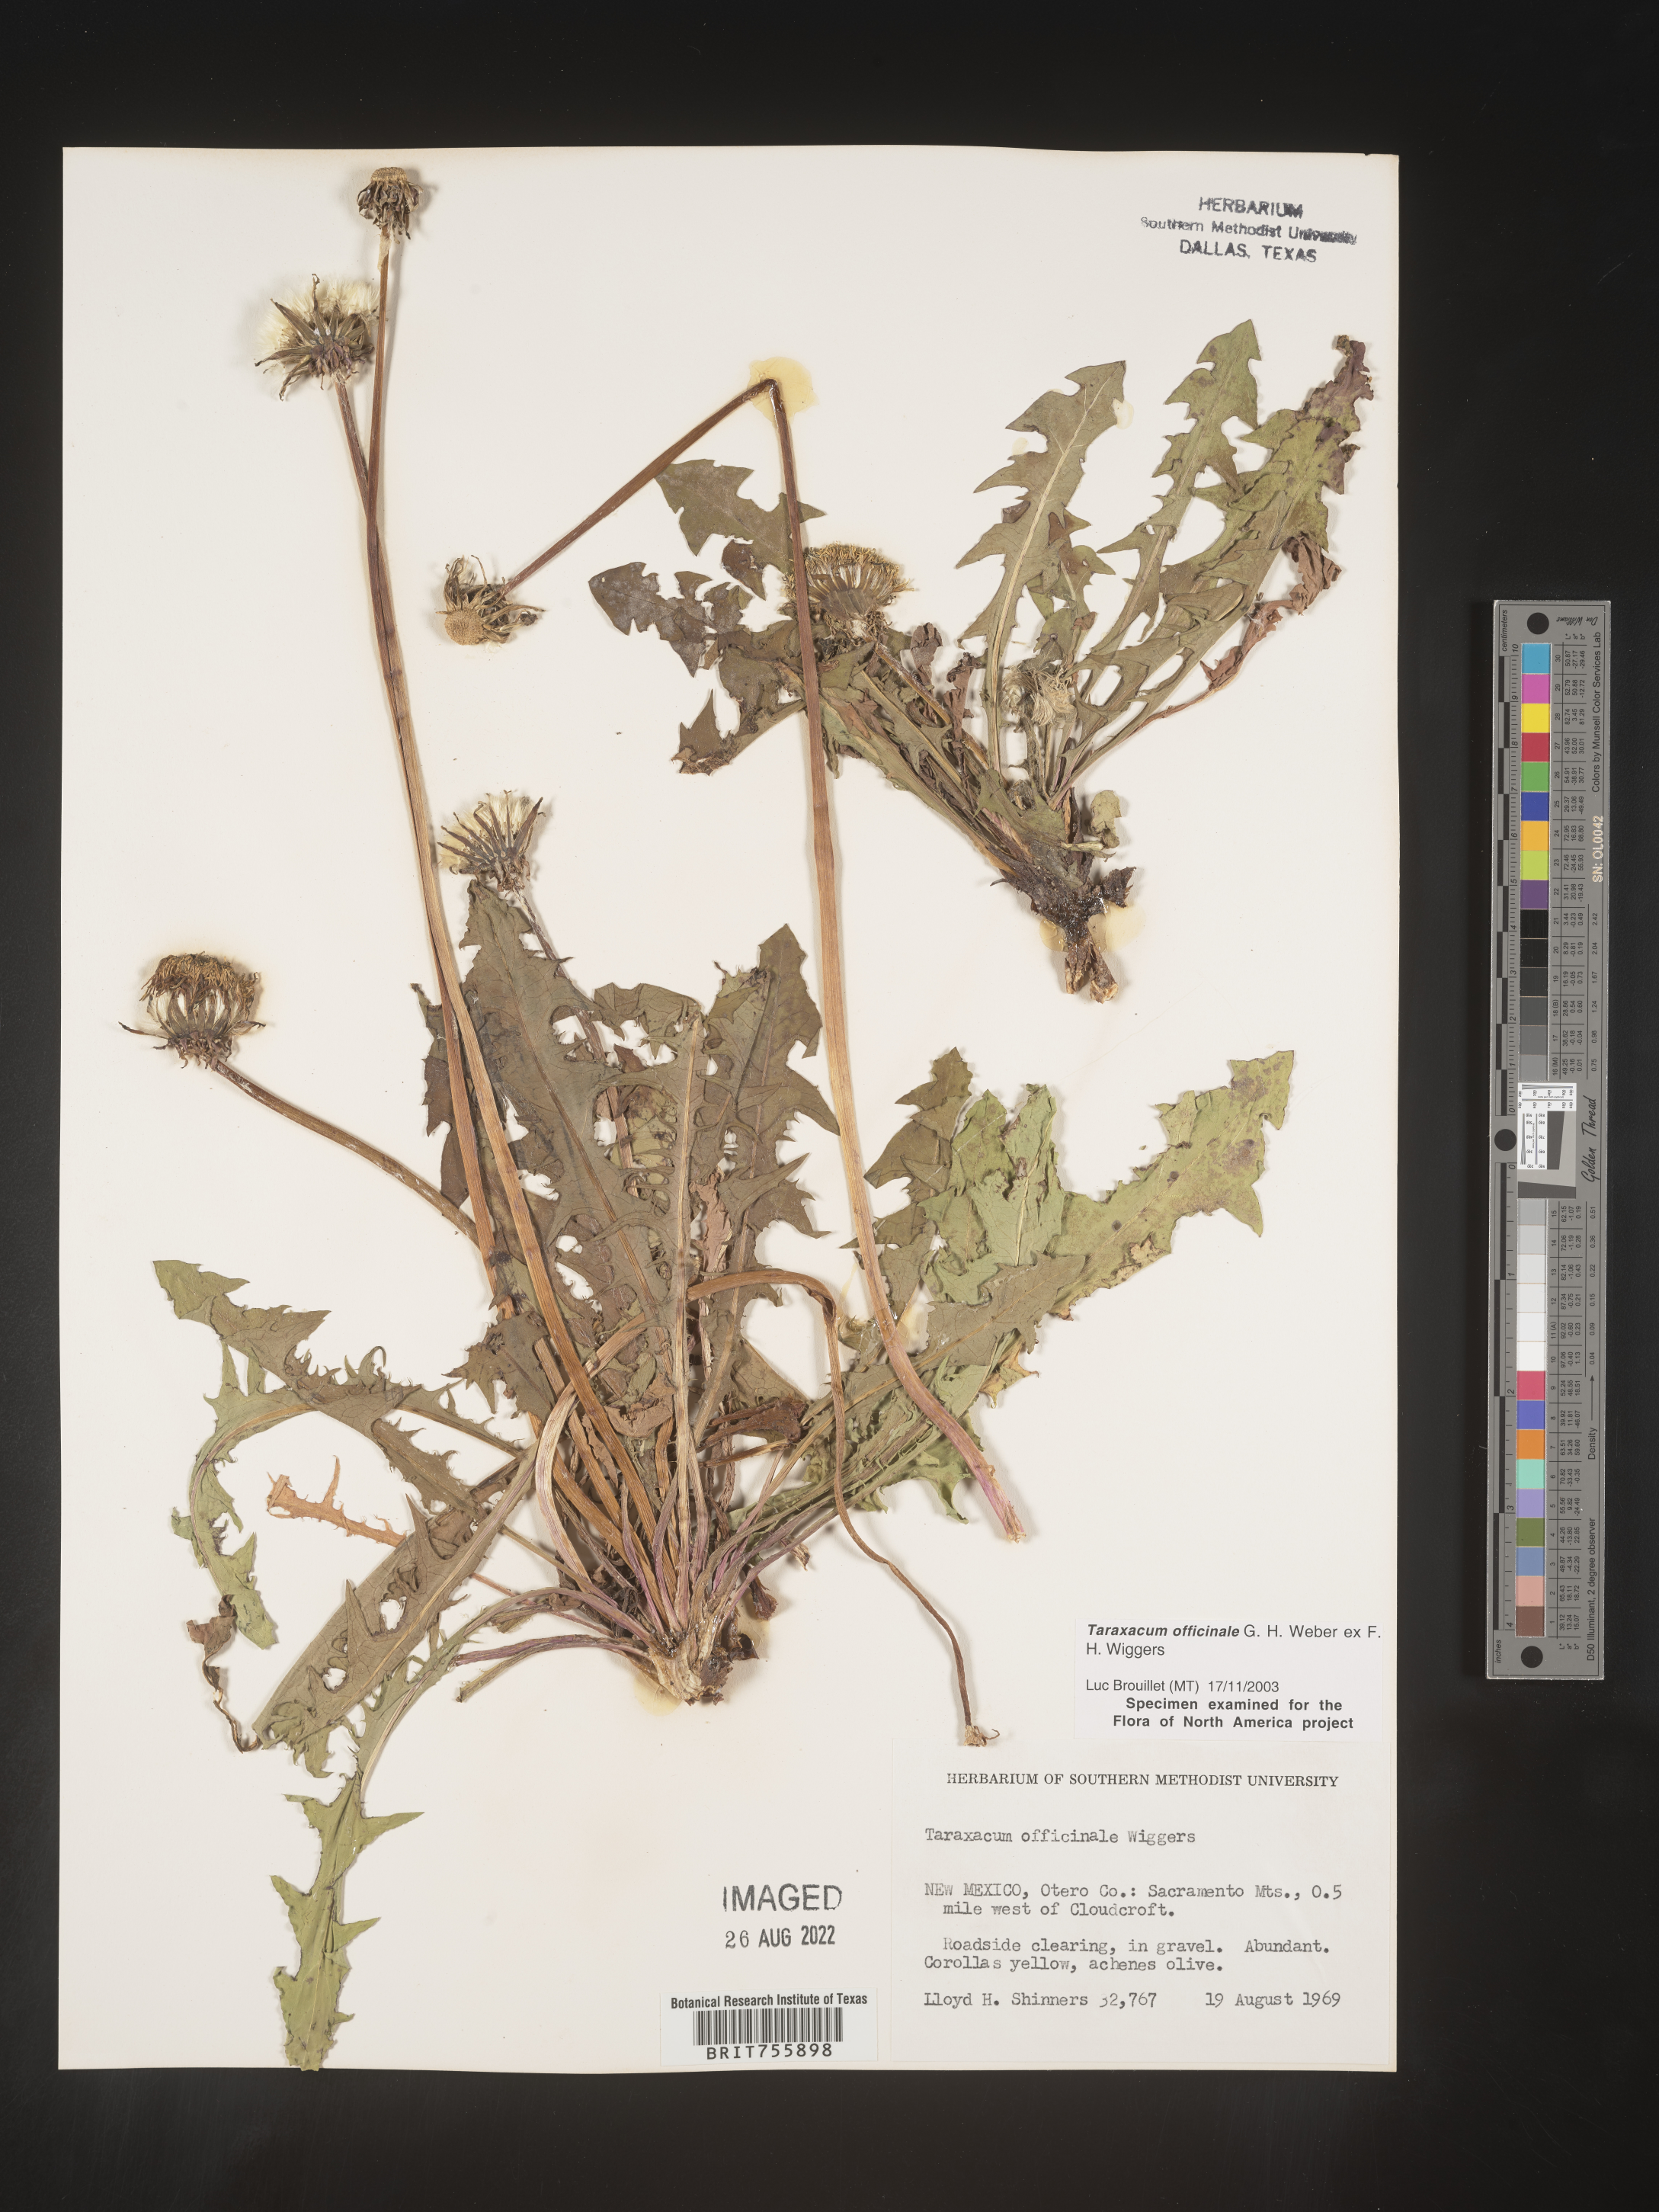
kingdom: Plantae
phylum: Tracheophyta
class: Magnoliopsida
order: Asterales
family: Asteraceae
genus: Taraxacum
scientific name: Taraxacum officinale
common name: Common dandelion
